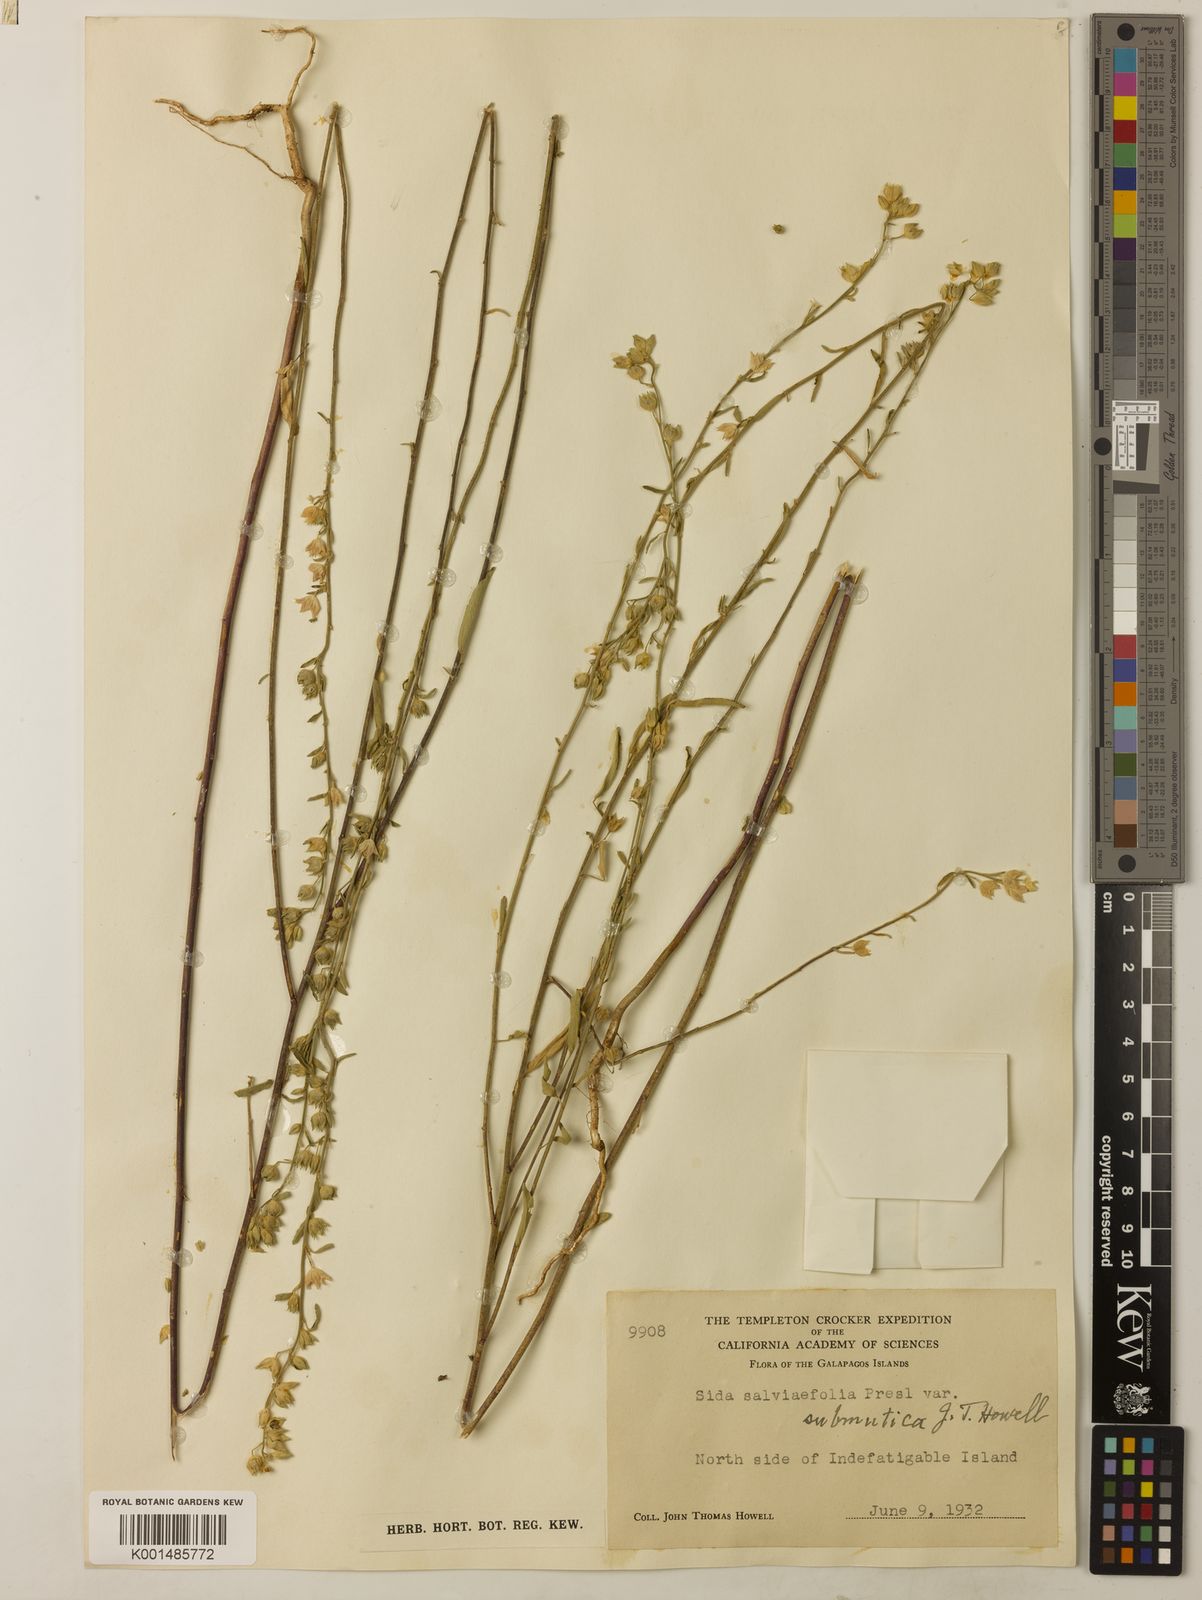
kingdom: Plantae
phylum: Tracheophyta
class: Magnoliopsida
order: Malvales
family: Malvaceae
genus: Sida
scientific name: Sida salviifolia
